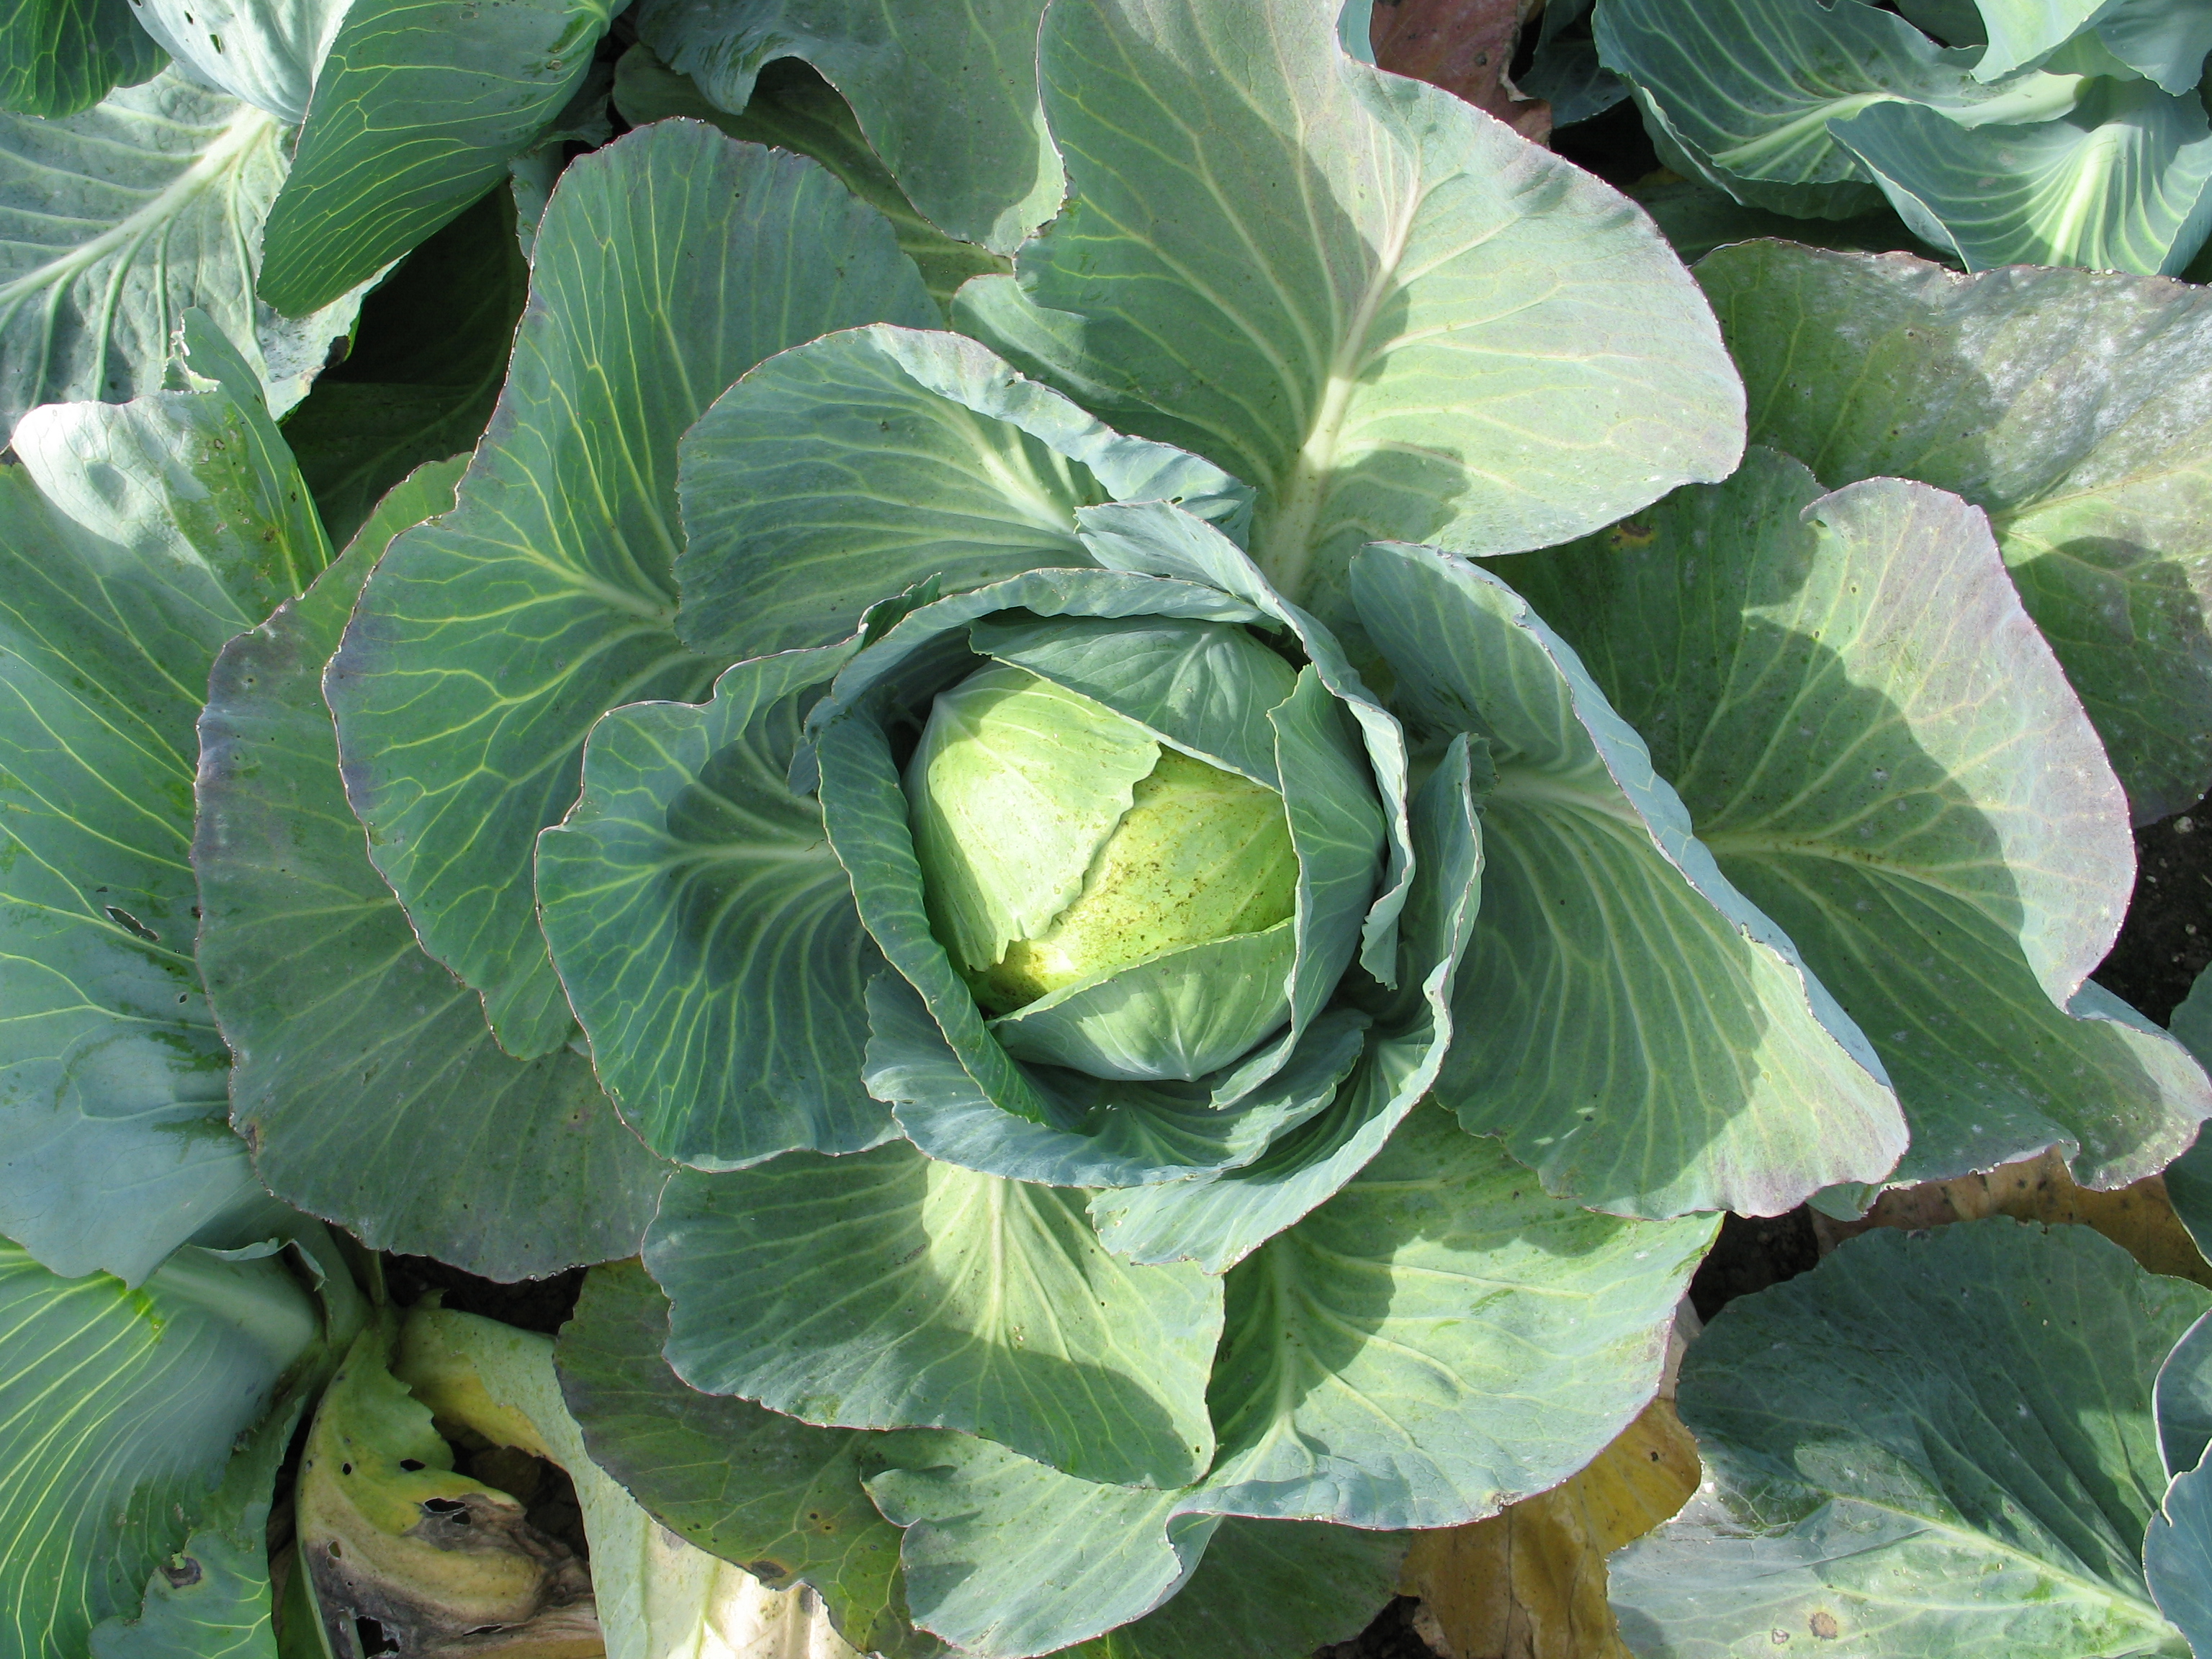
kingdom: Plantae
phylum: Tracheophyta
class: Magnoliopsida
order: Brassicales
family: Brassicaceae
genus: Brassica
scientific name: Brassica oleracea
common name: Cabbage
